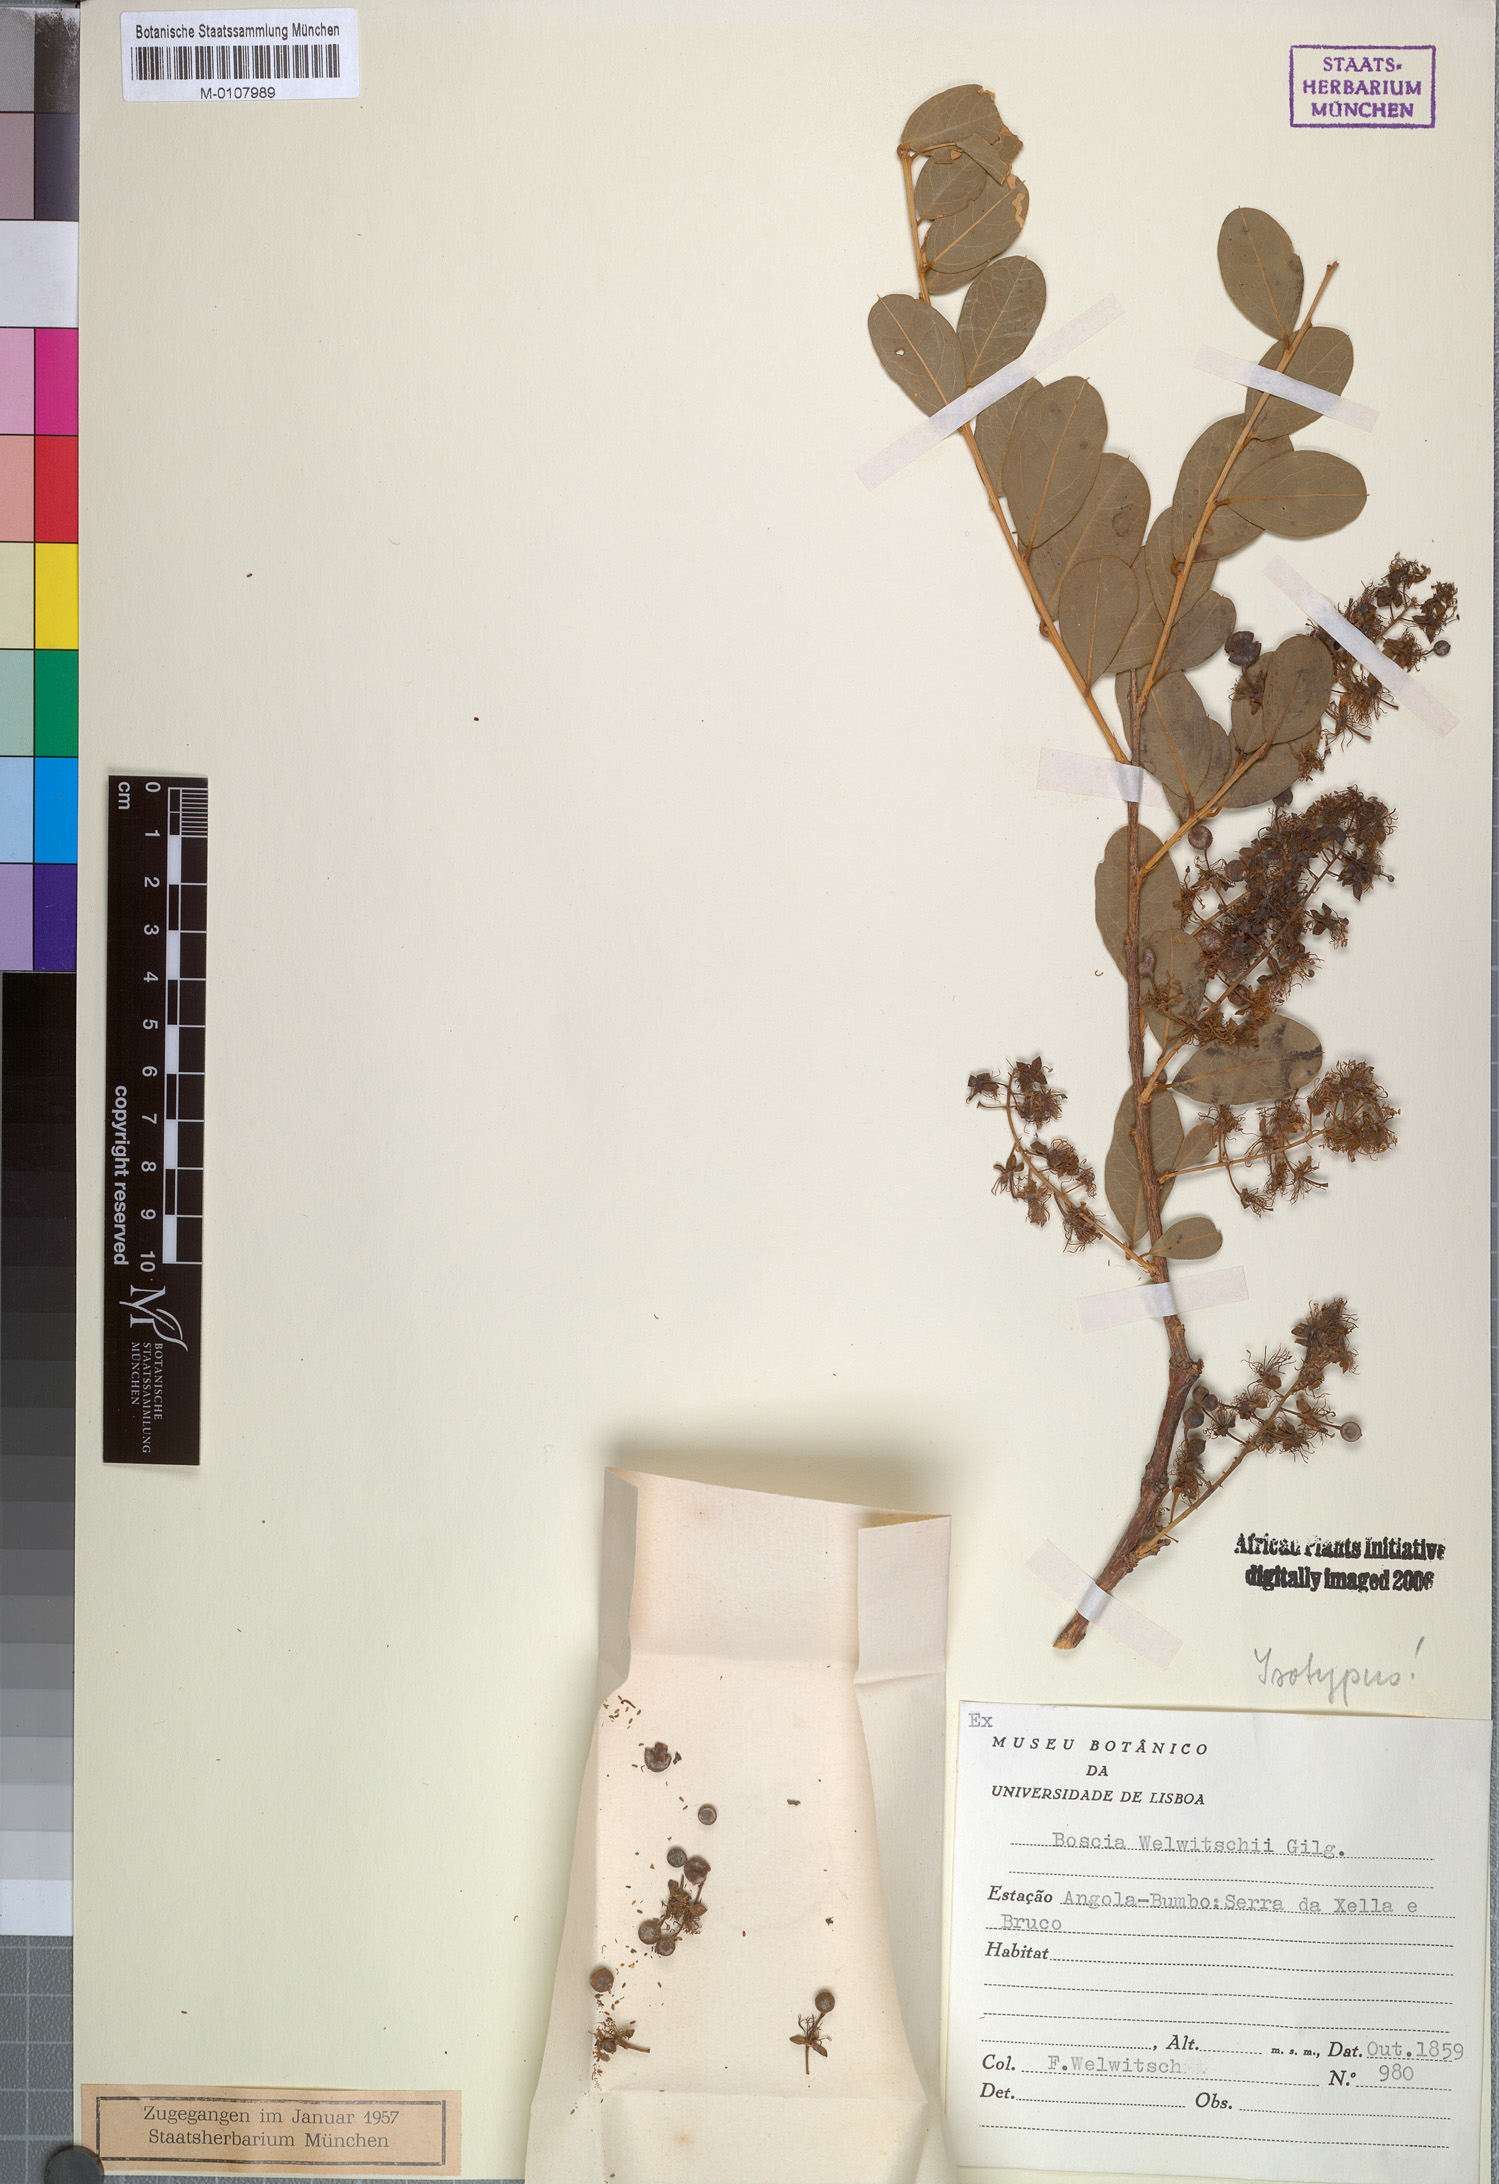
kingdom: Plantae
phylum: Tracheophyta
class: Magnoliopsida
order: Brassicales
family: Capparaceae
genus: Boscia
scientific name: Boscia mossambicensis
